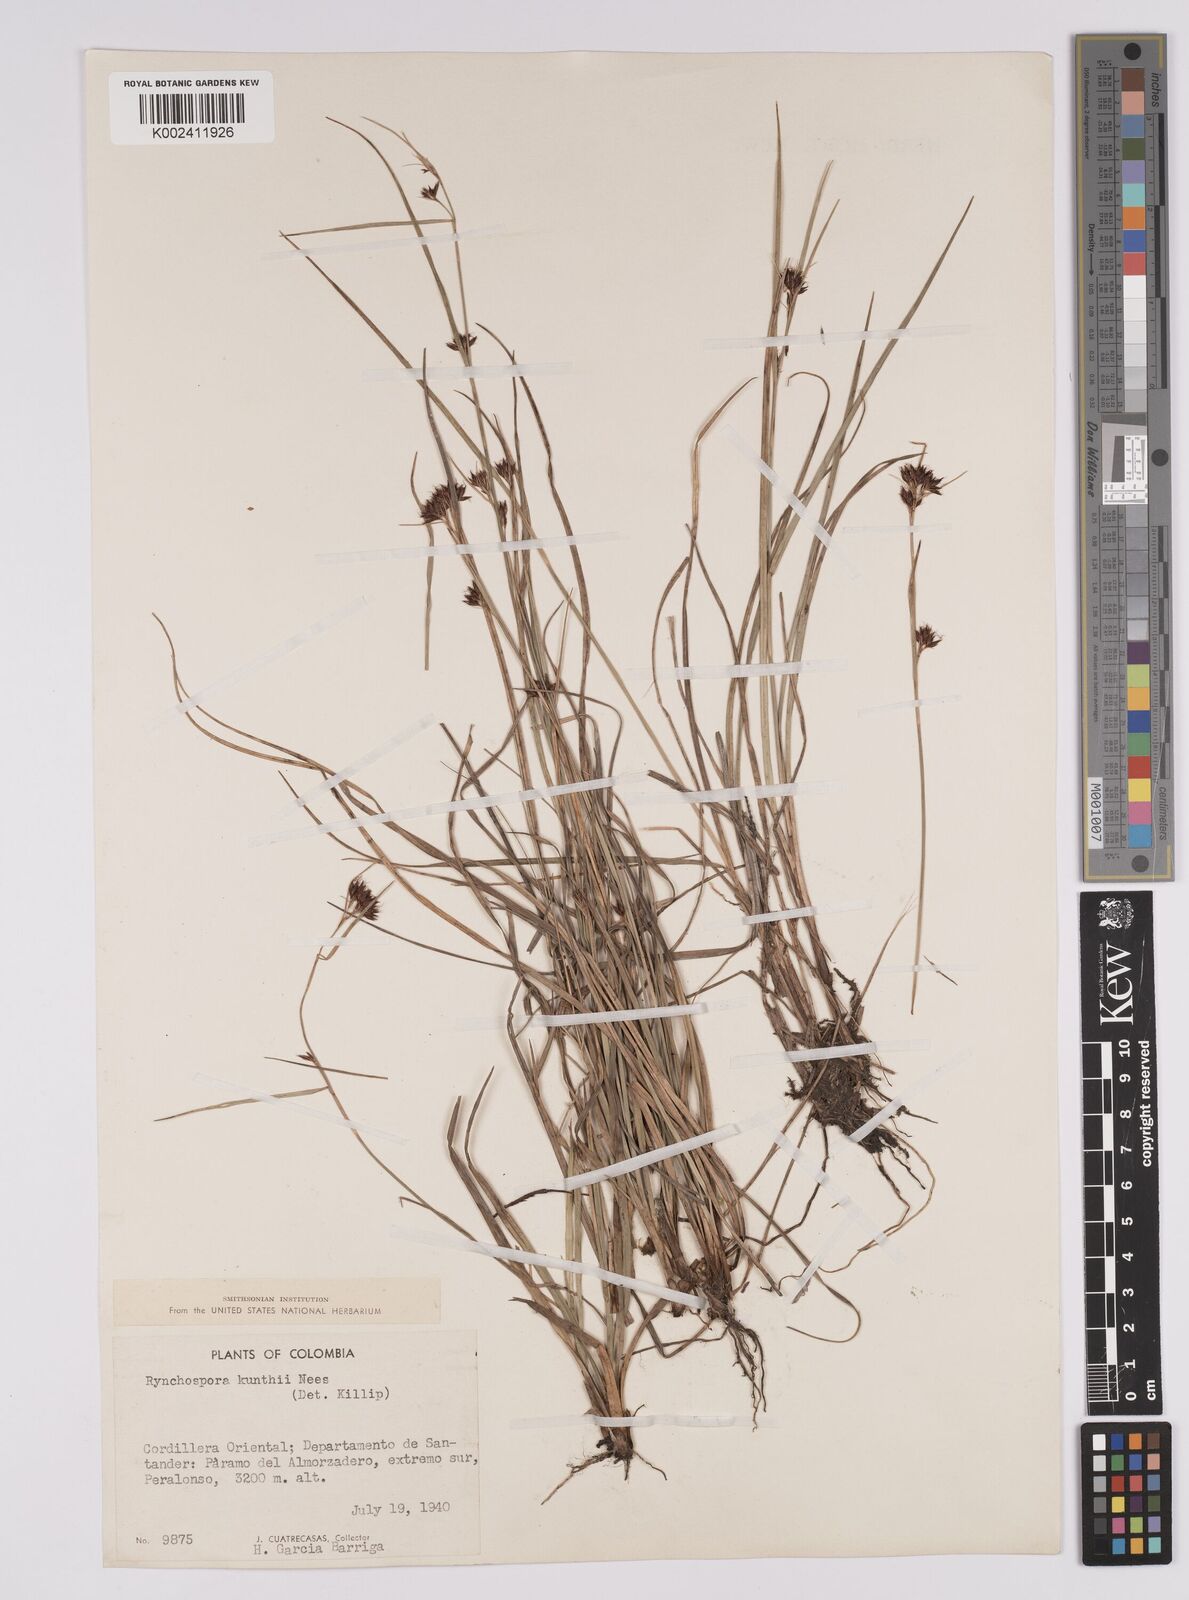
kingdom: Plantae
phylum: Tracheophyta
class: Liliopsida
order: Poales
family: Cyperaceae
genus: Rhynchospora
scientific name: Rhynchospora kunthii
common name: Kunth's beaksedge
